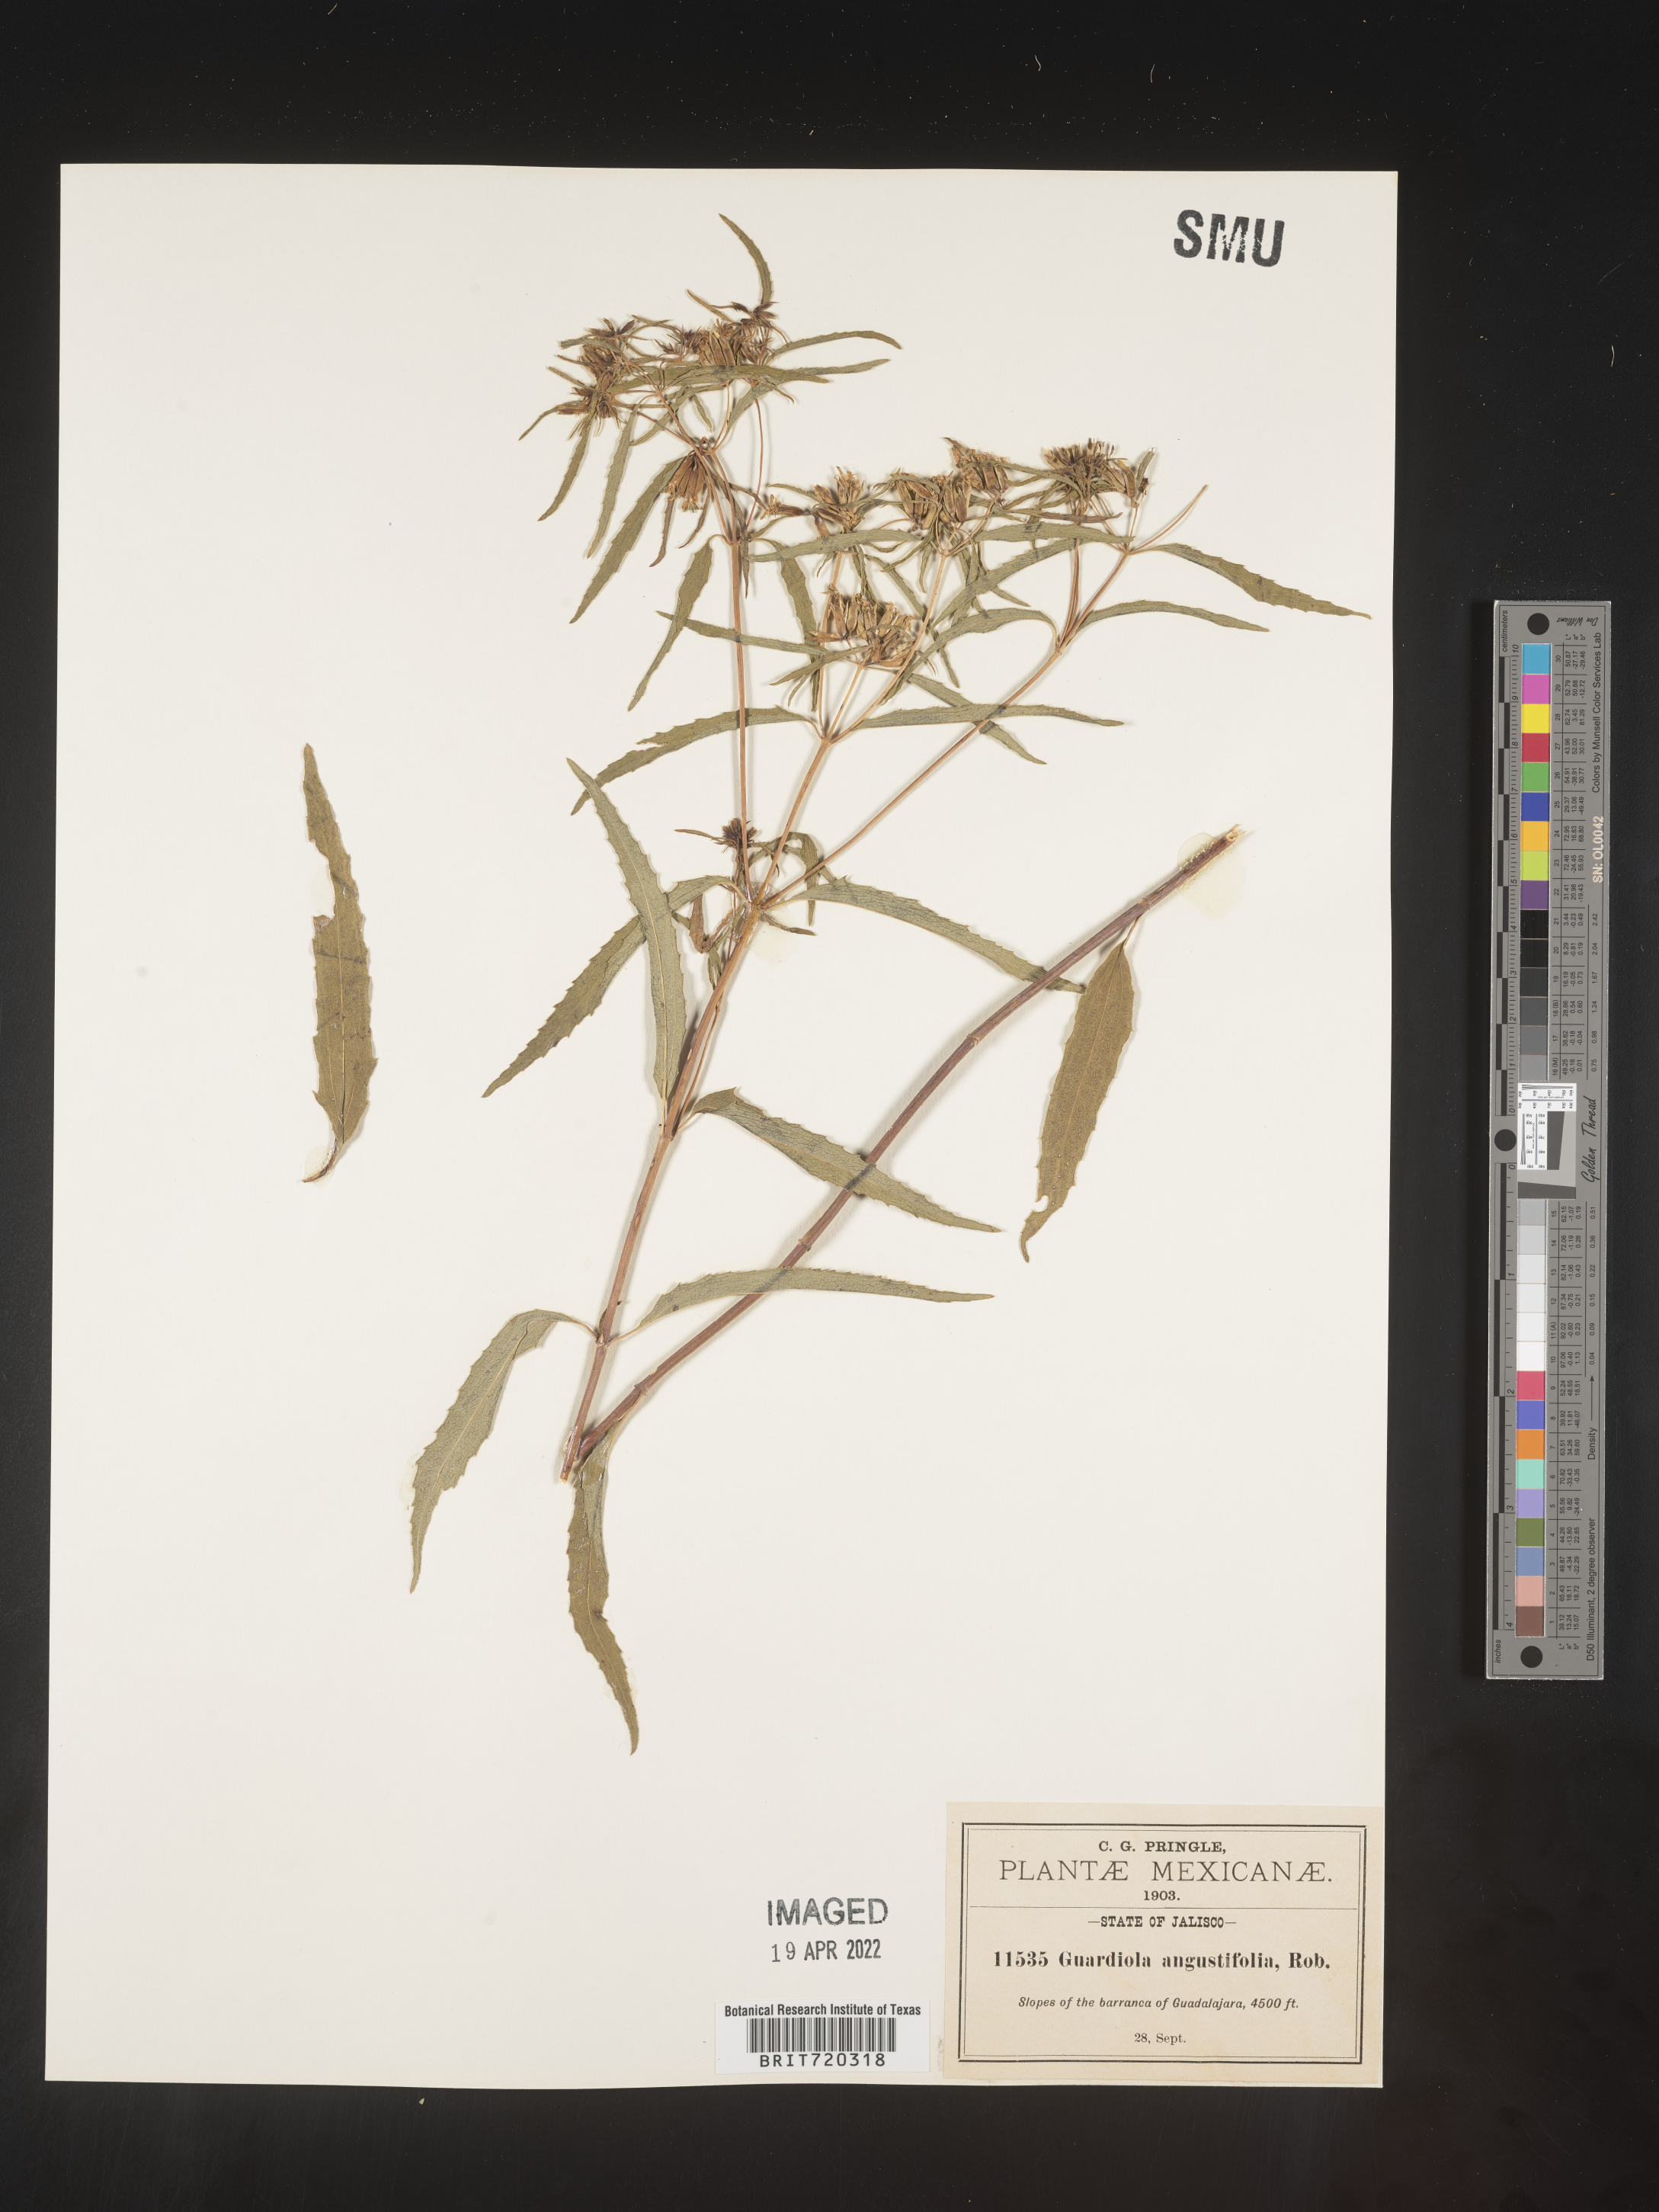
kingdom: Plantae
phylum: Tracheophyta
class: Magnoliopsida
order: Asterales
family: Asteraceae
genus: Guardiola
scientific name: Guardiola
